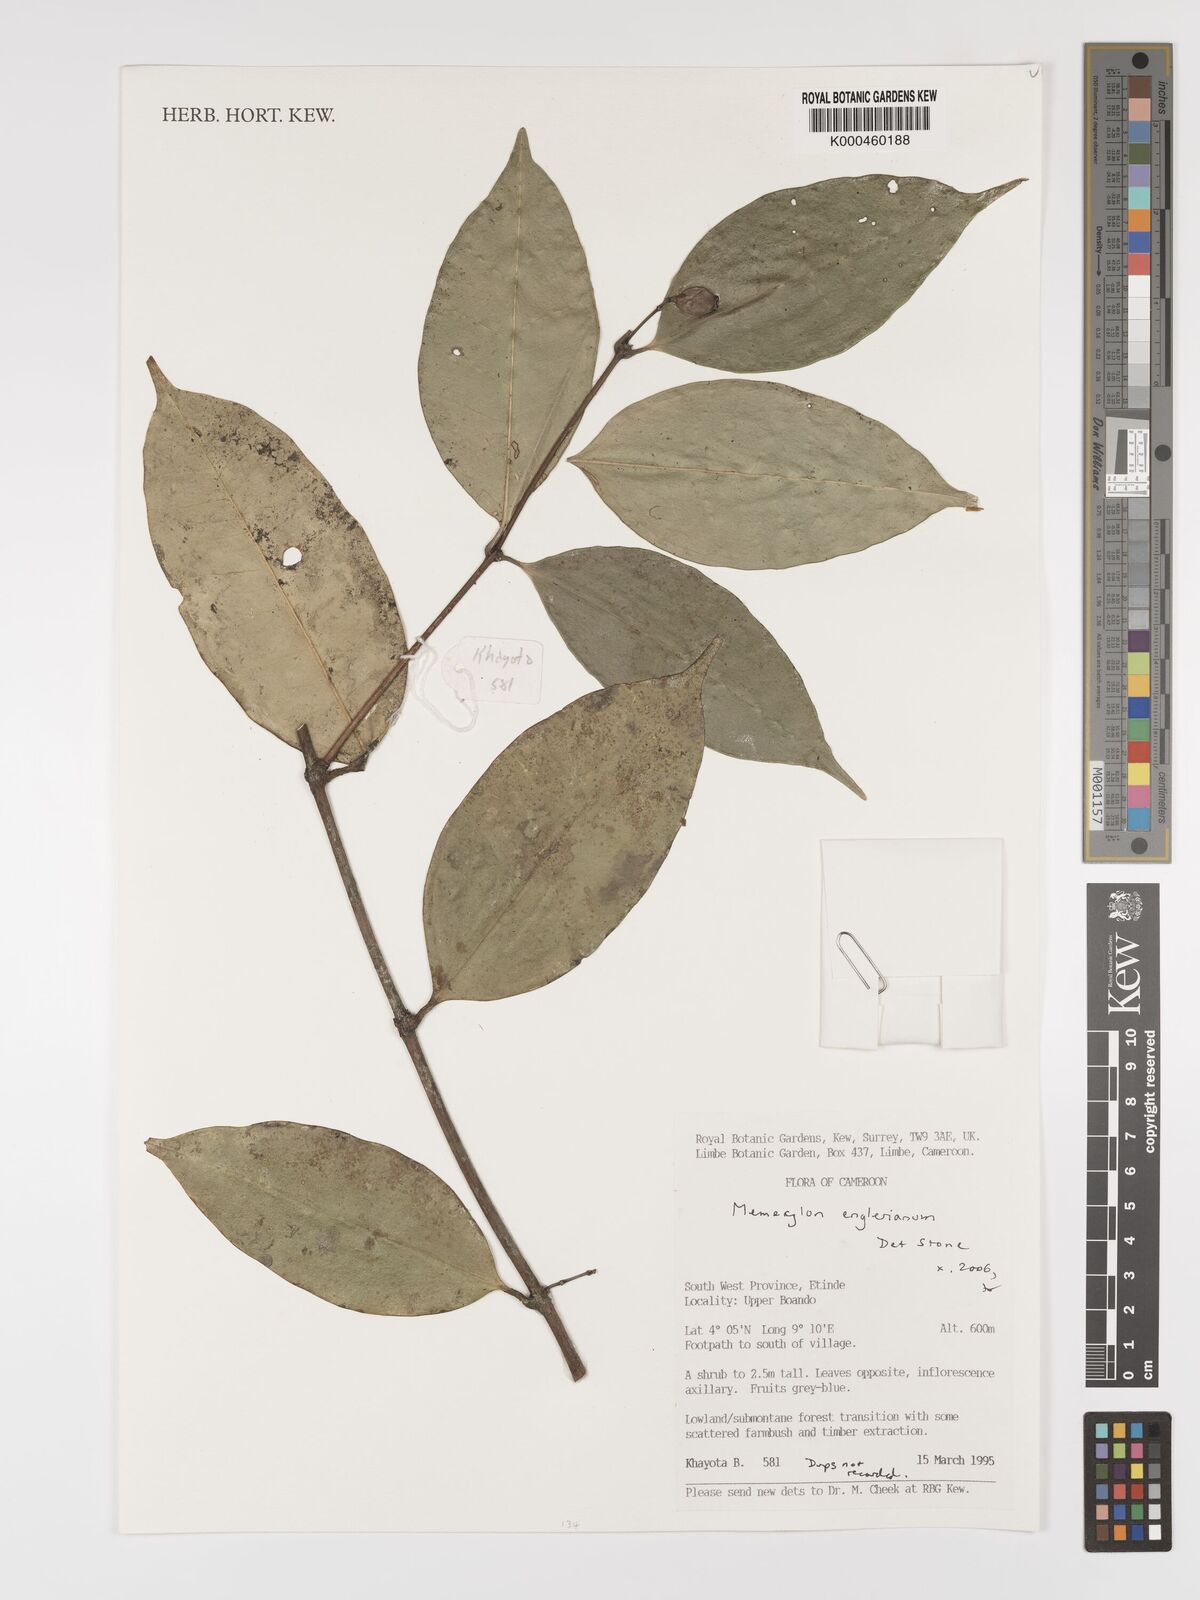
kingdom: Plantae
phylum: Tracheophyta
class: Magnoliopsida
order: Myrtales
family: Melastomataceae
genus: Memecylon
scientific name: Memecylon englerianum
